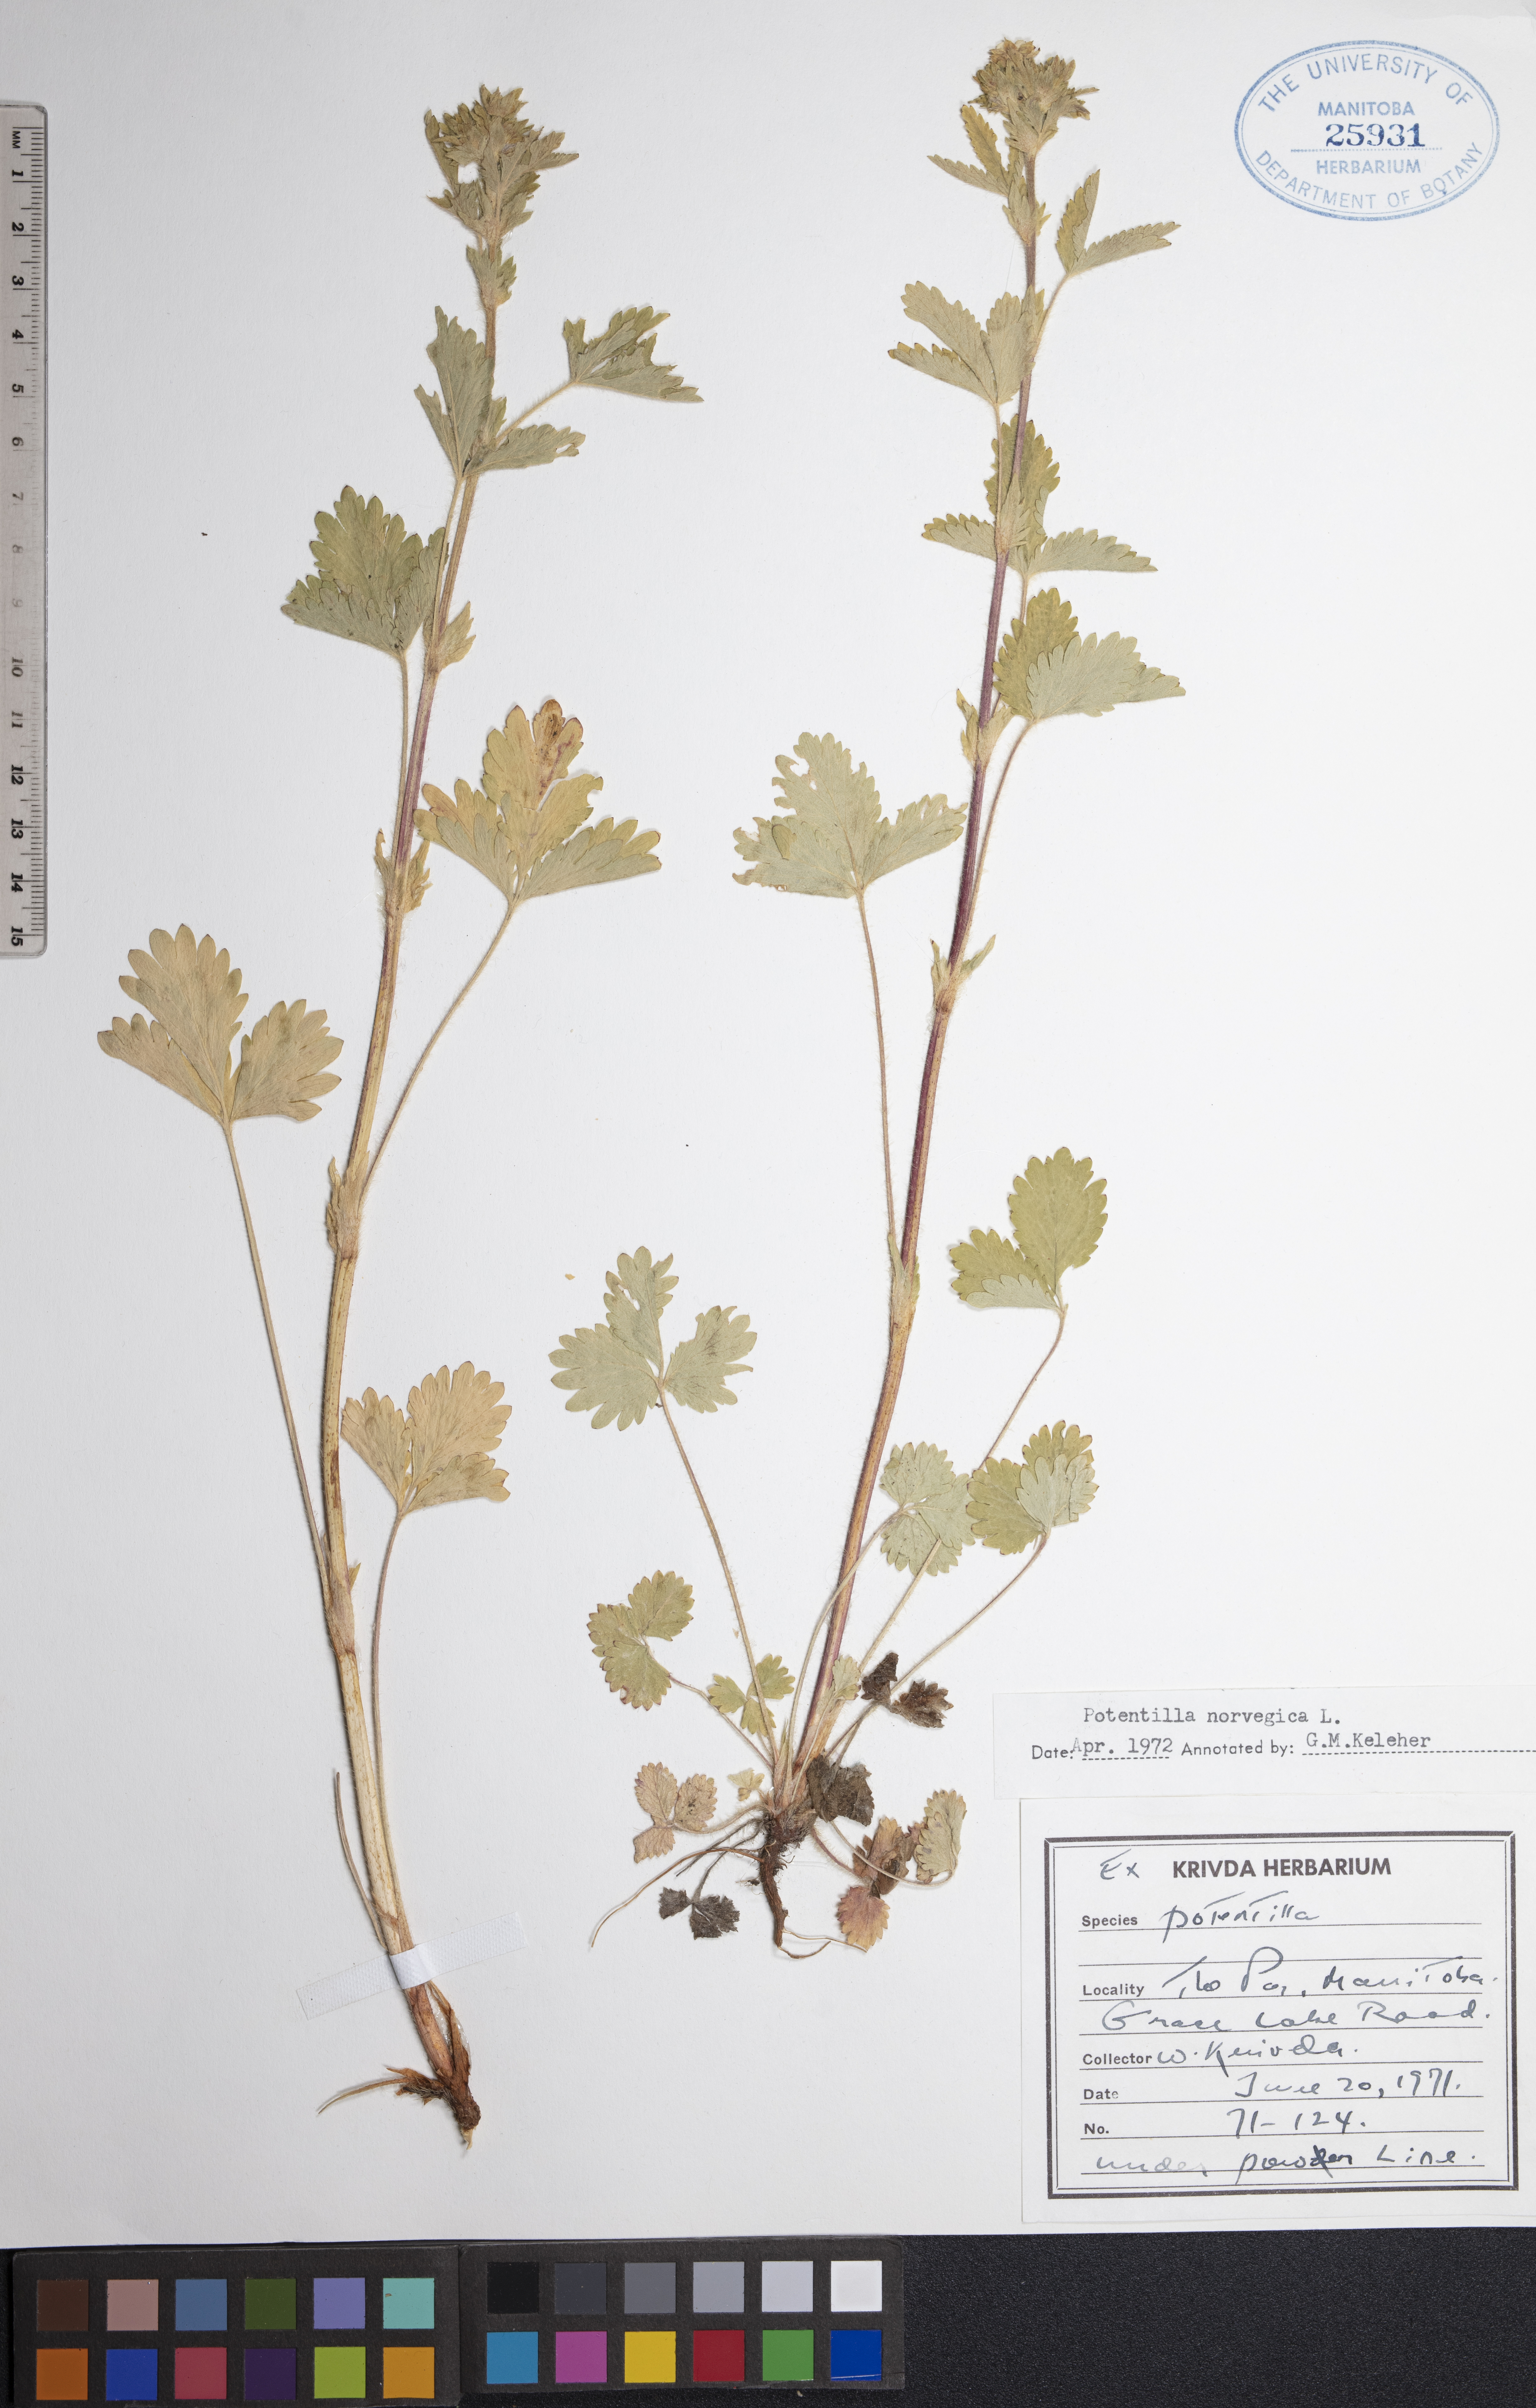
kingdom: Plantae
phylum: Tracheophyta
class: Magnoliopsida
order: Rosales
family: Rosaceae
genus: Potentilla
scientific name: Potentilla norvegica
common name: Ternate-leaved cinquefoil
